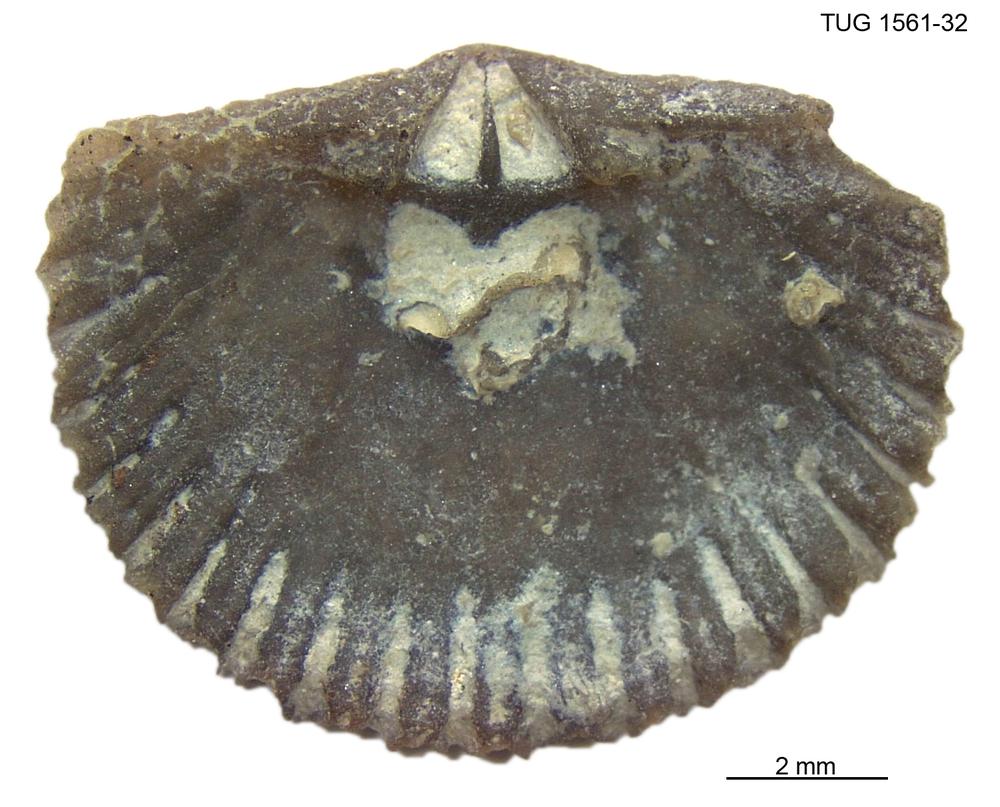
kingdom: Animalia
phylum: Brachiopoda
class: Rhynchonellata
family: Dalmanellidae
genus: Orthis
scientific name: Orthis
